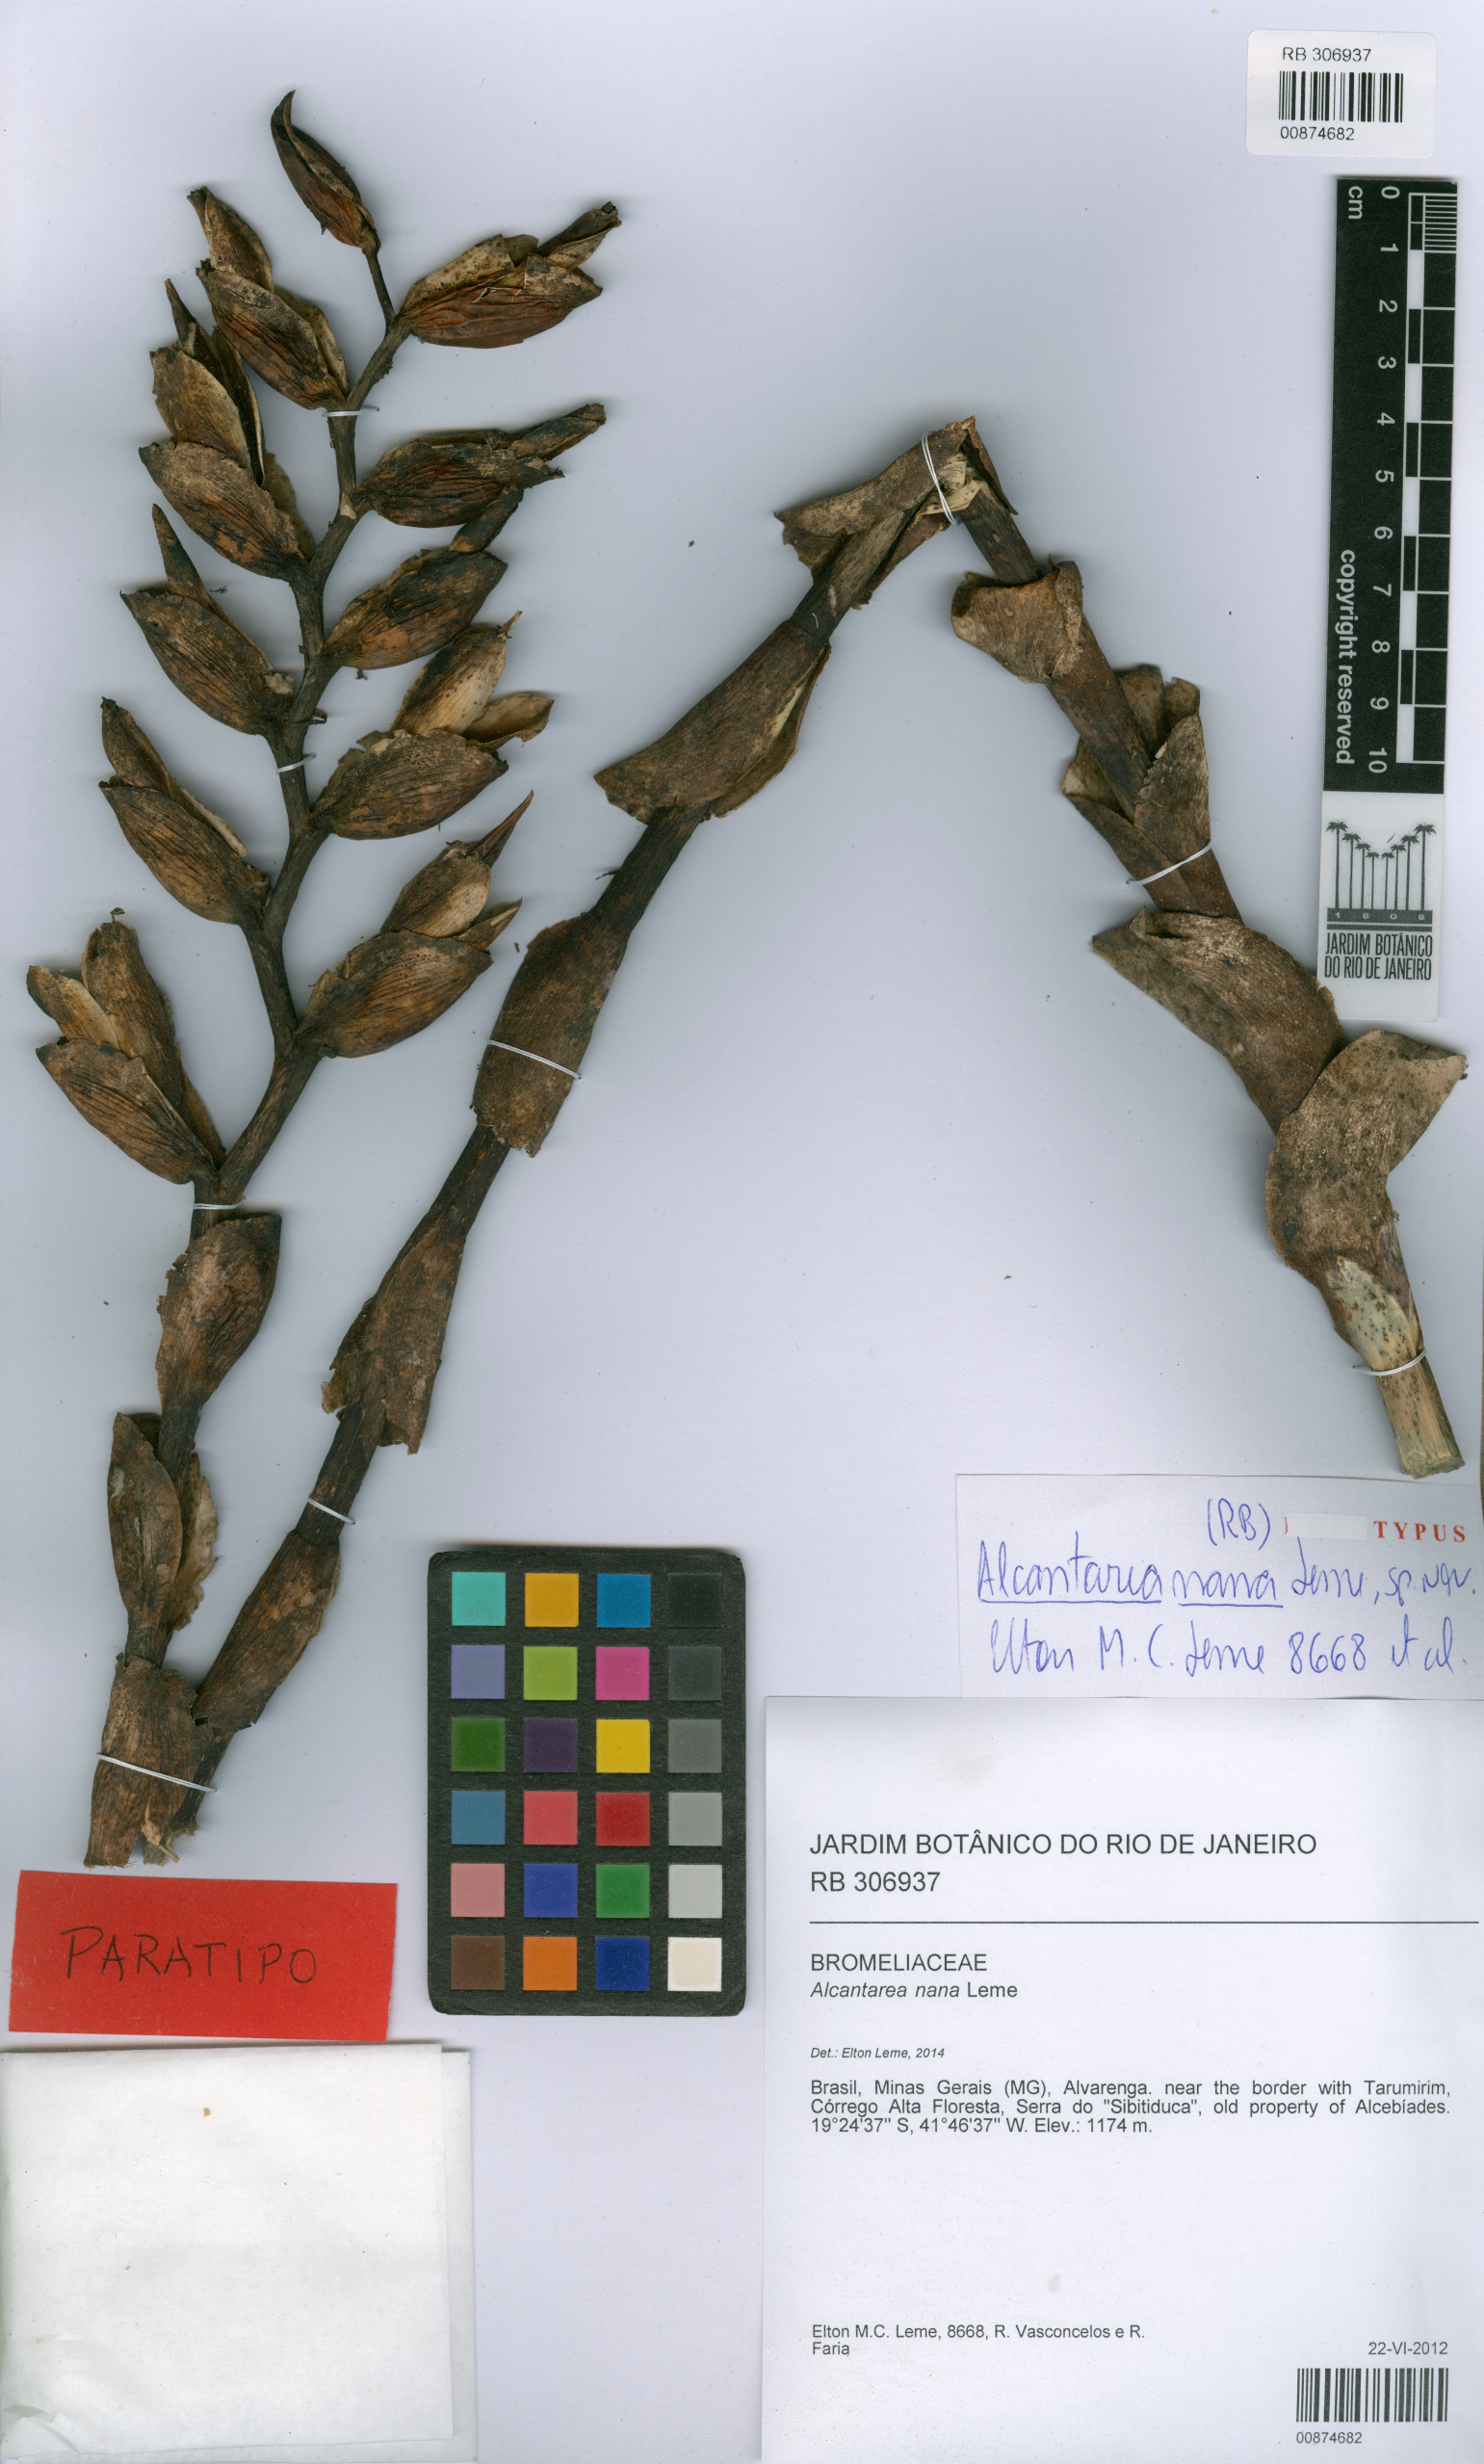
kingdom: Plantae
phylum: Tracheophyta
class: Liliopsida
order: Poales
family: Bromeliaceae
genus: Alcantarea
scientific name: Alcantarea nana
